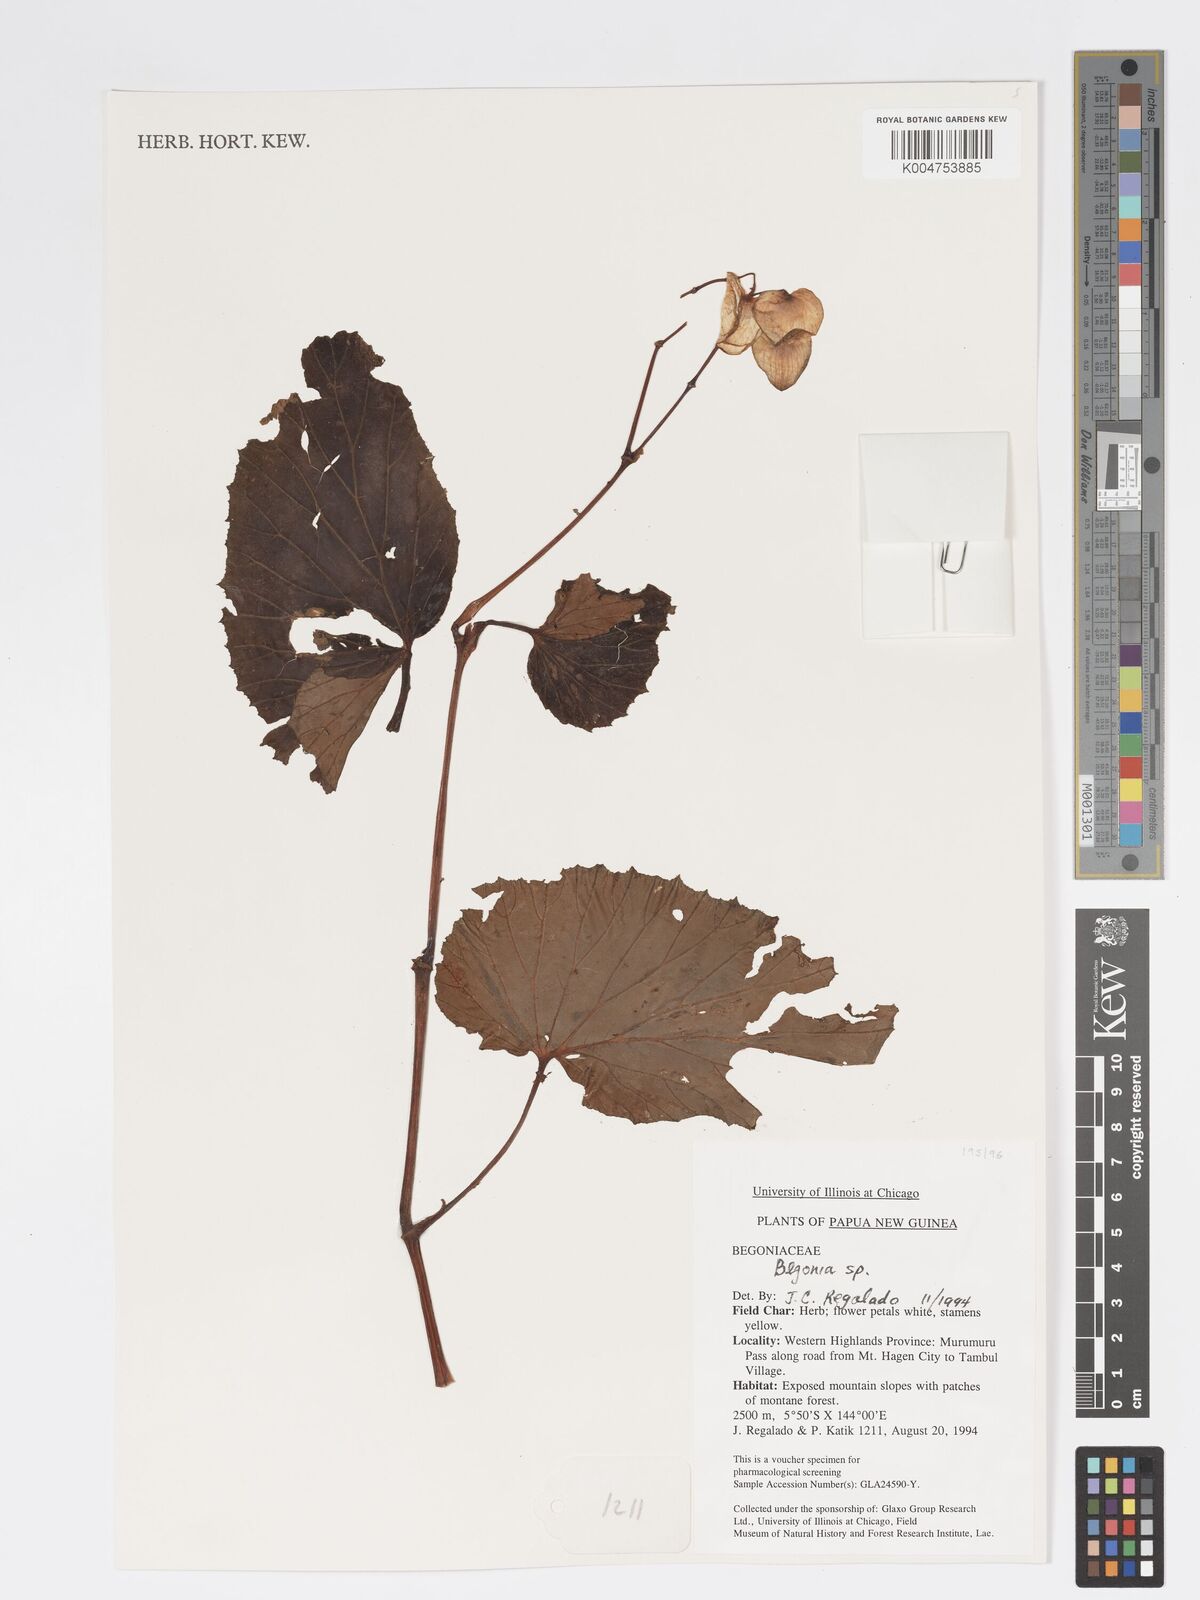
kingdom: Plantae
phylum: Tracheophyta
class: Magnoliopsida
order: Cucurbitales
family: Begoniaceae
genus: Begonia
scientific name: Begonia
